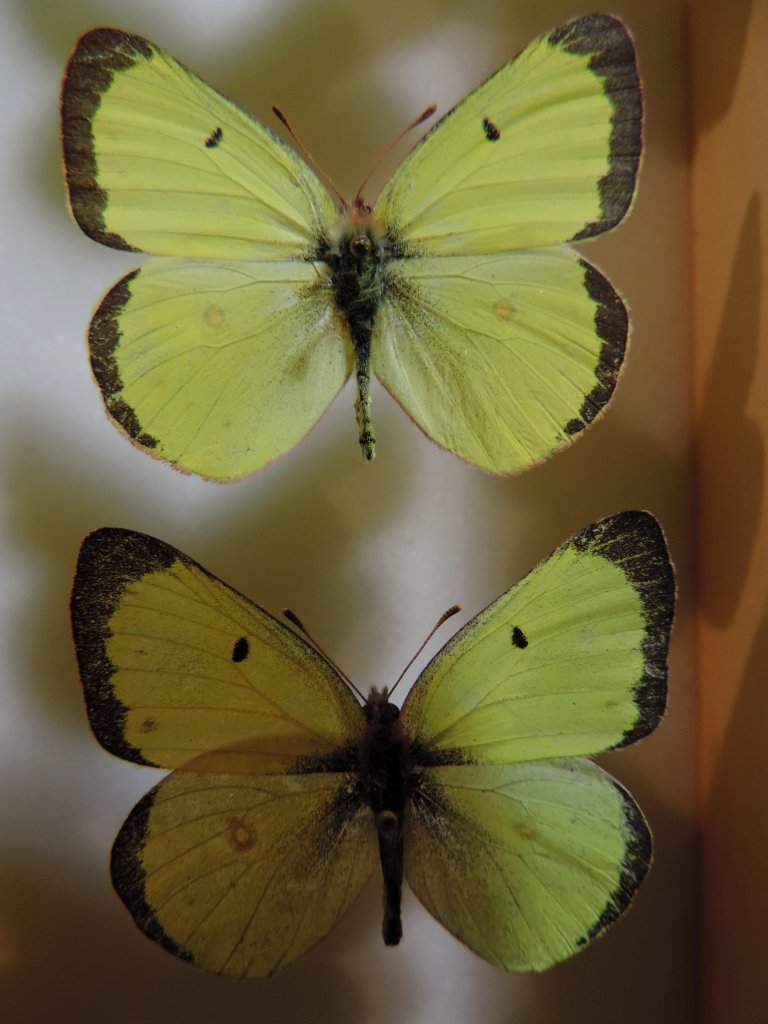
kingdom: Animalia
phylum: Arthropoda
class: Insecta
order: Lepidoptera
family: Pieridae
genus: Colias
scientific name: Colias philodice
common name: Clouded Sulphur
